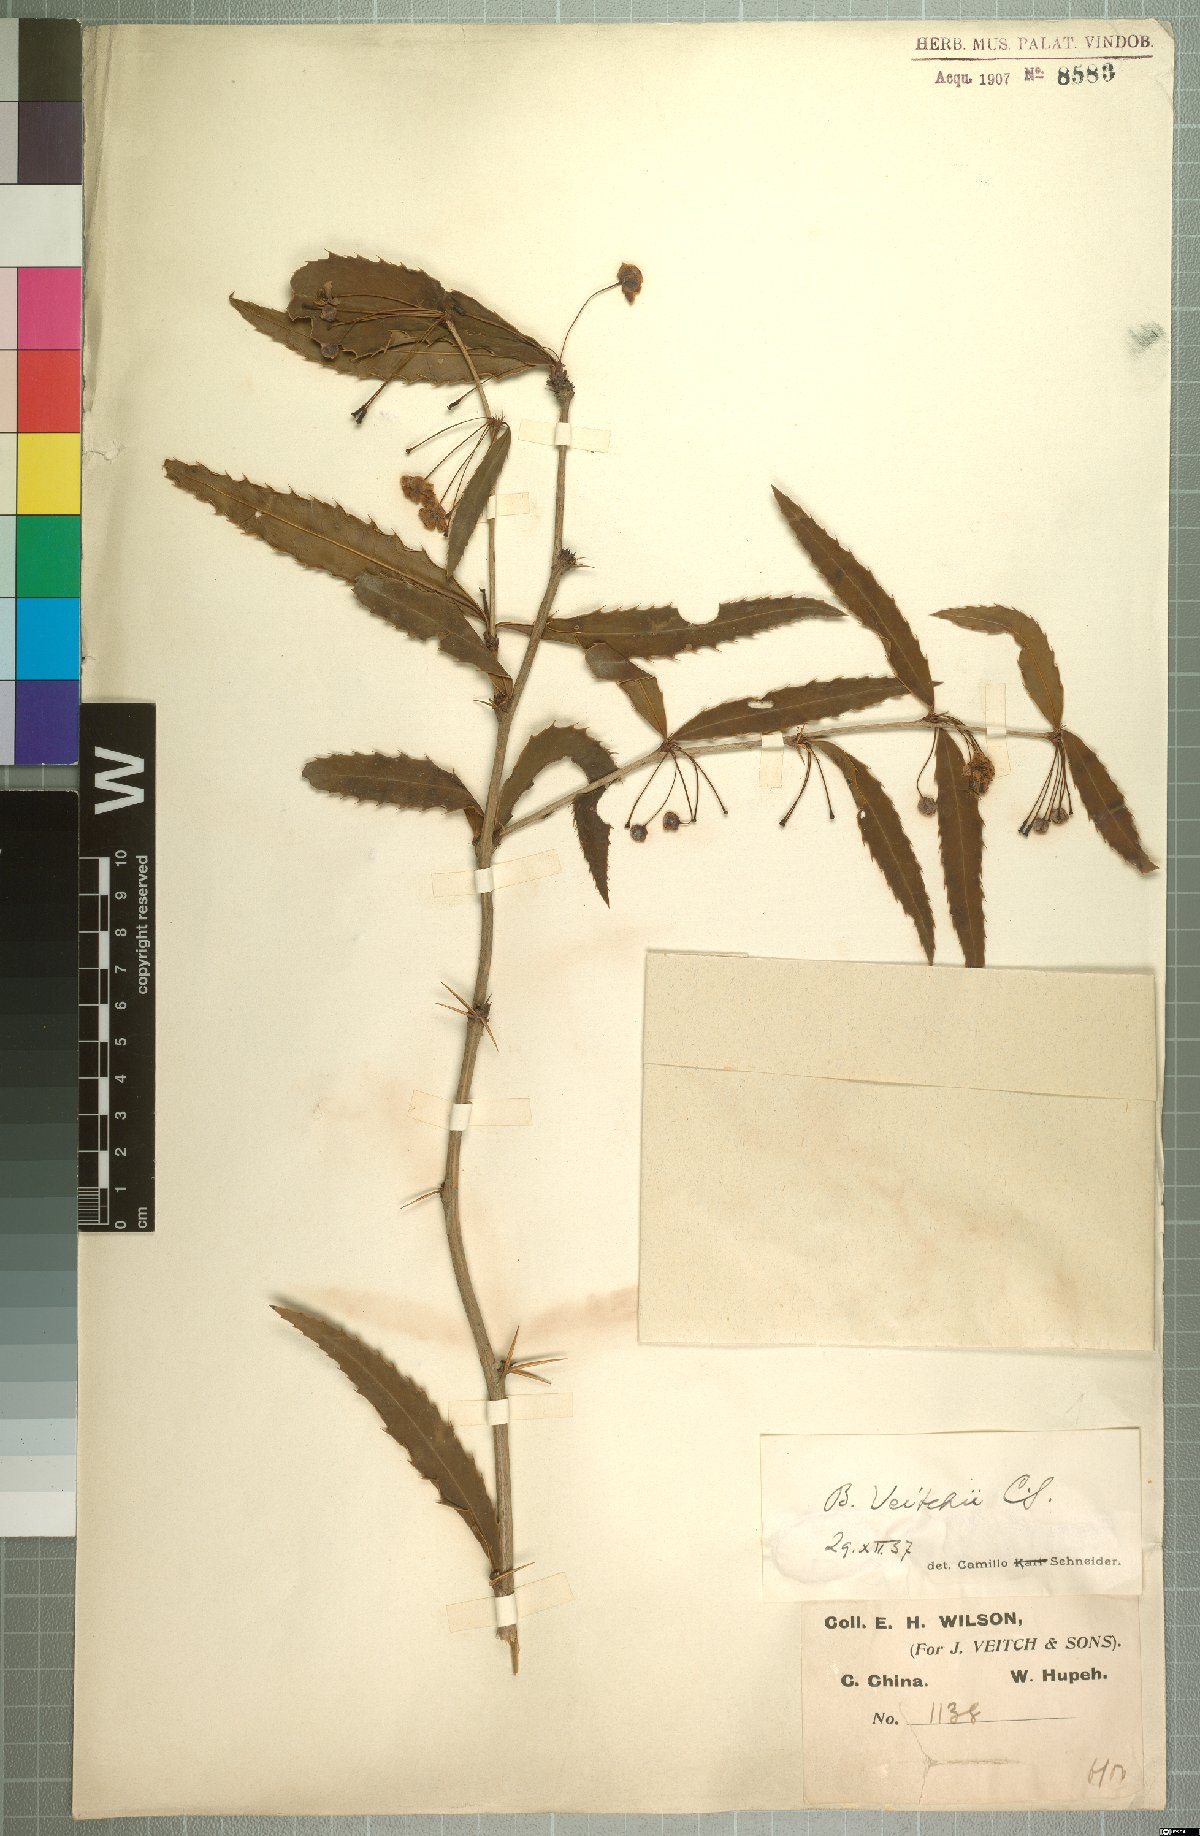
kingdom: Plantae
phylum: Tracheophyta
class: Magnoliopsida
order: Ranunculales
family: Berberidaceae
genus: Berberis
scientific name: Berberis veitchii
